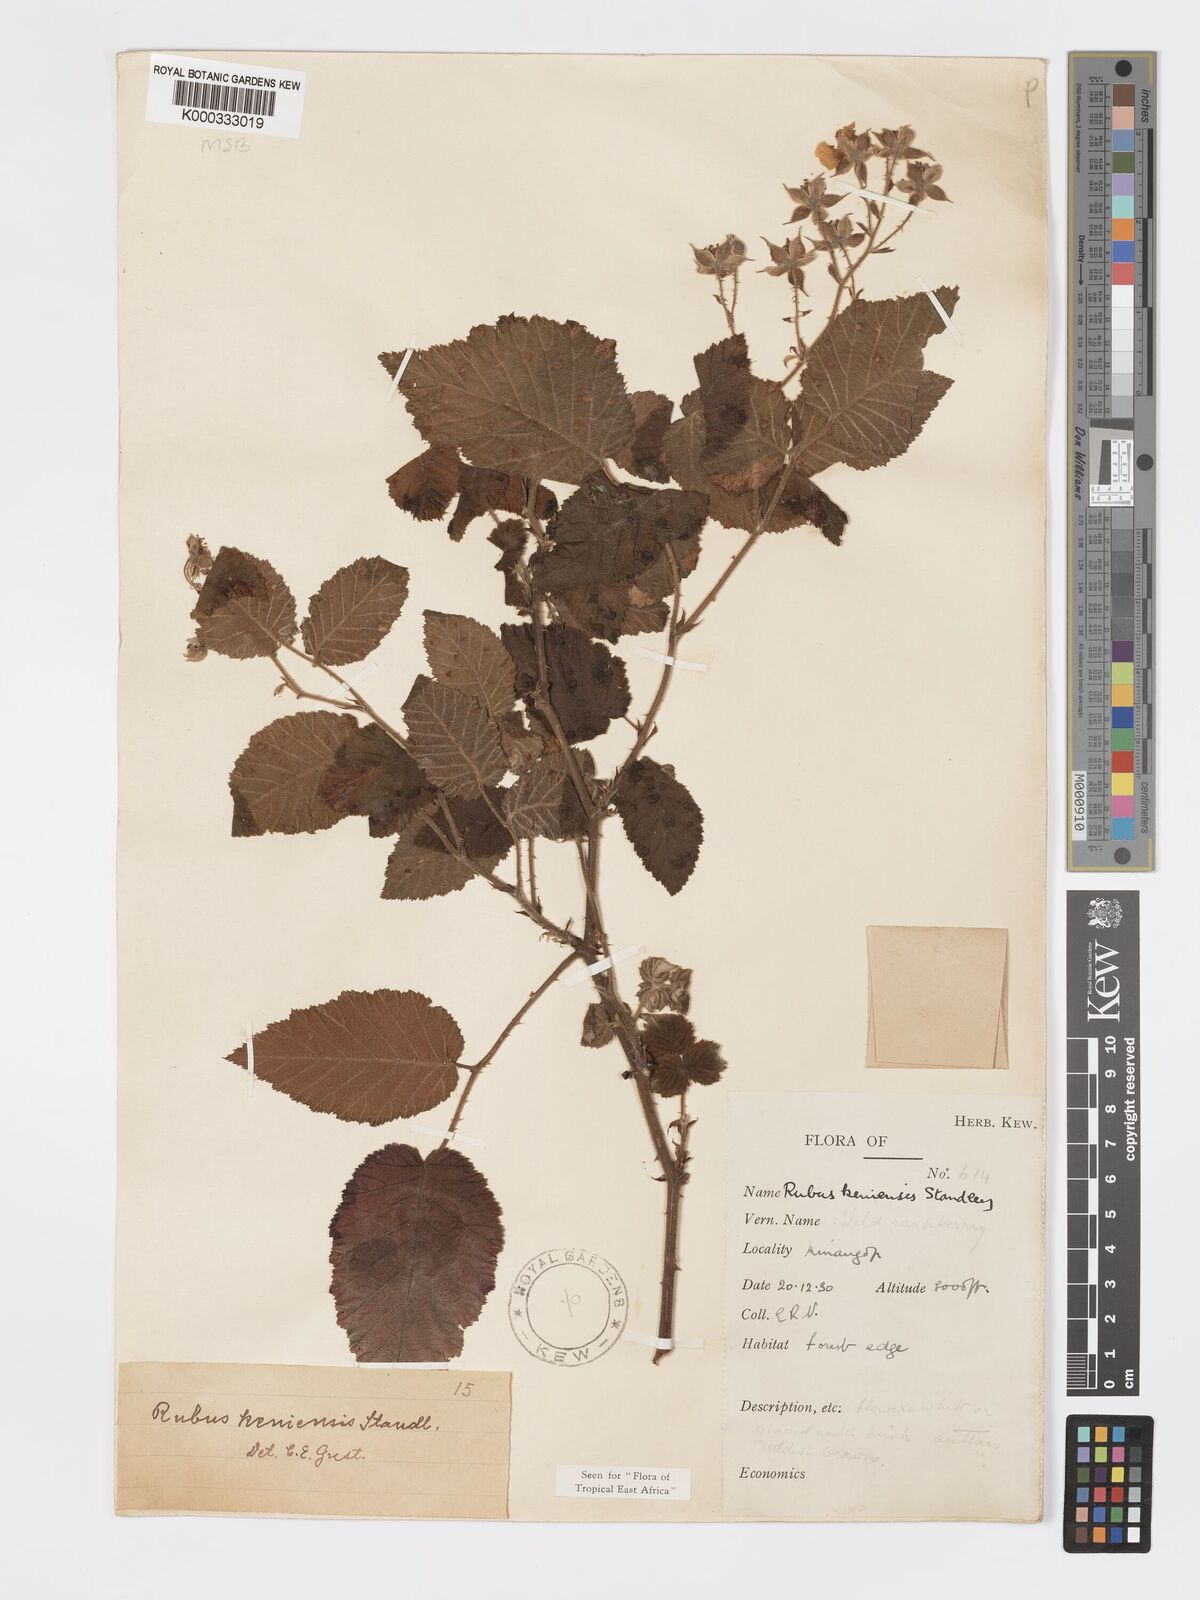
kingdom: Plantae
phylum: Tracheophyta
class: Magnoliopsida
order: Rosales
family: Rosaceae
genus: Rubus
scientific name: Rubus keniensis
